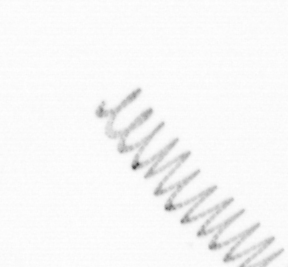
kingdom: Chromista
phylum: Ochrophyta
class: Bacillariophyceae
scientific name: Bacillariophyceae
